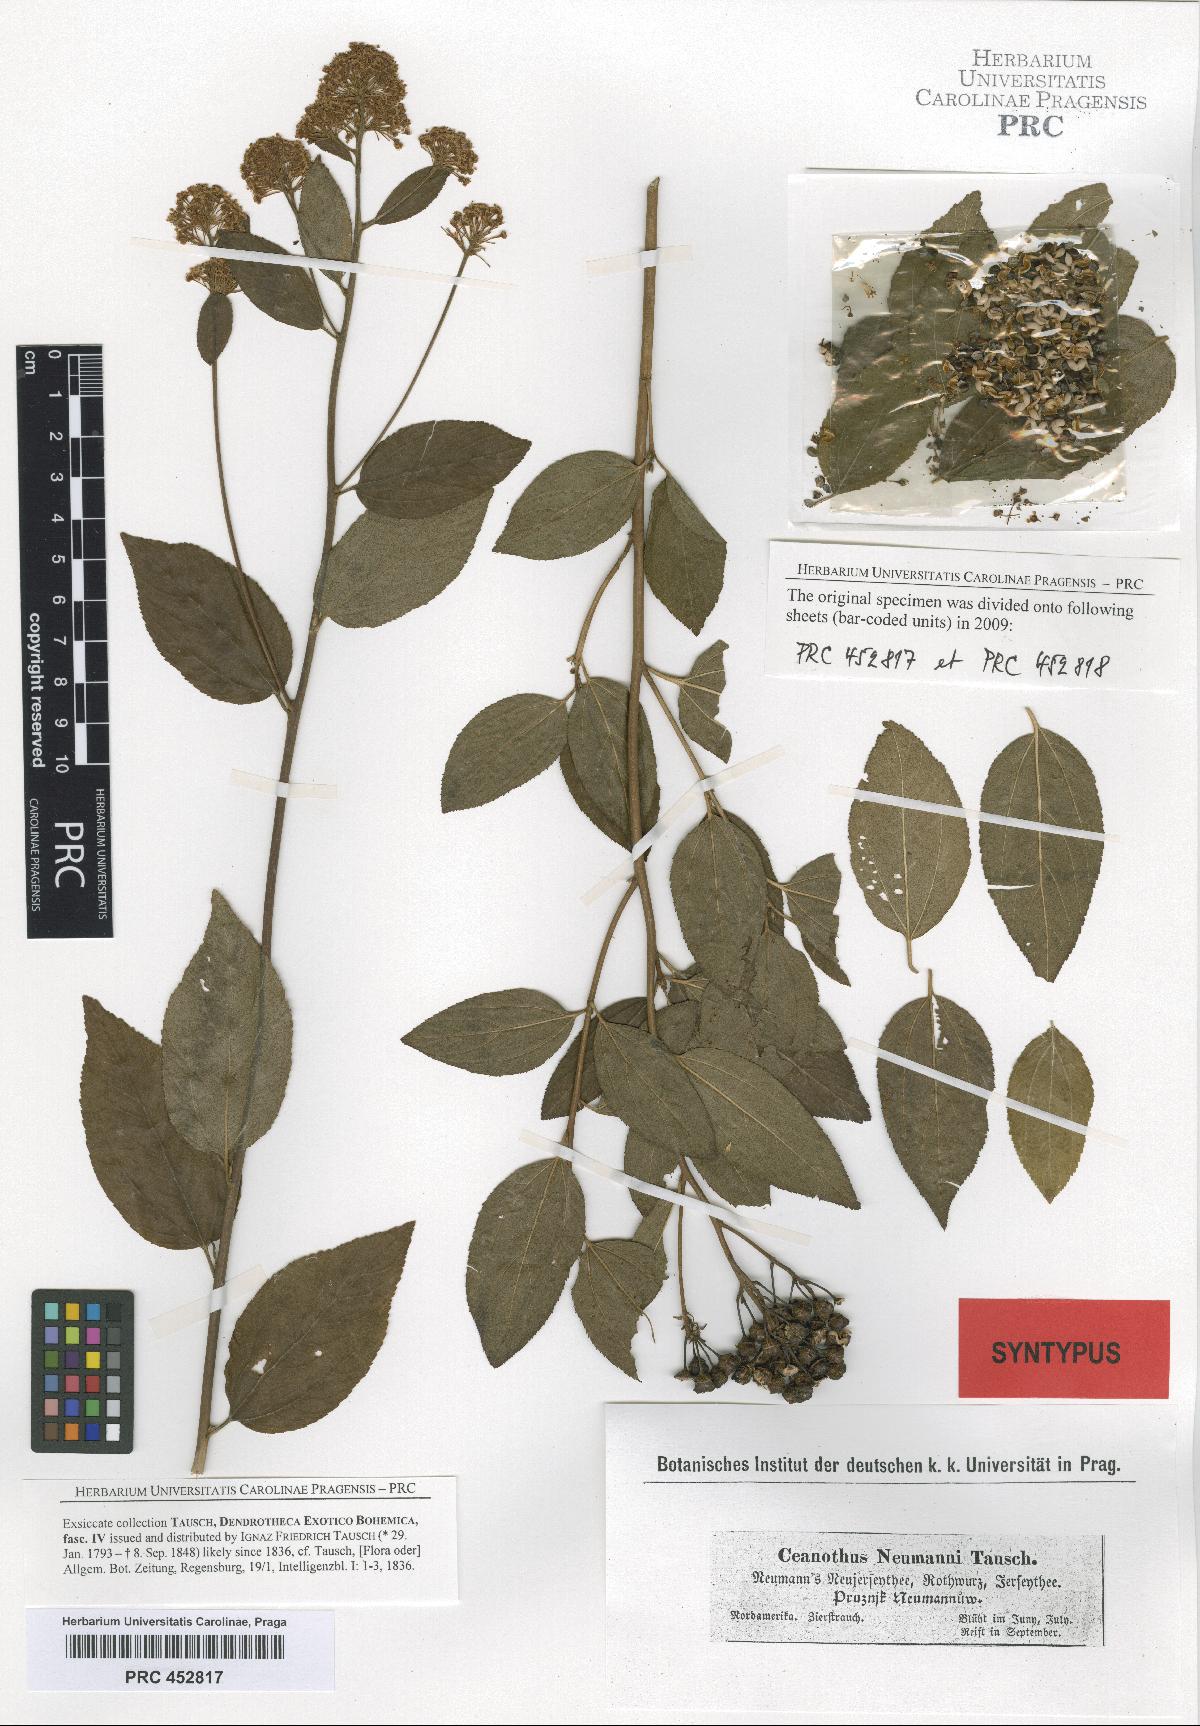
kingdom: Plantae
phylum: Tracheophyta
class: Magnoliopsida
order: Rosales
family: Rhamnaceae
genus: Ceanothus
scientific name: Ceanothus neumannii
